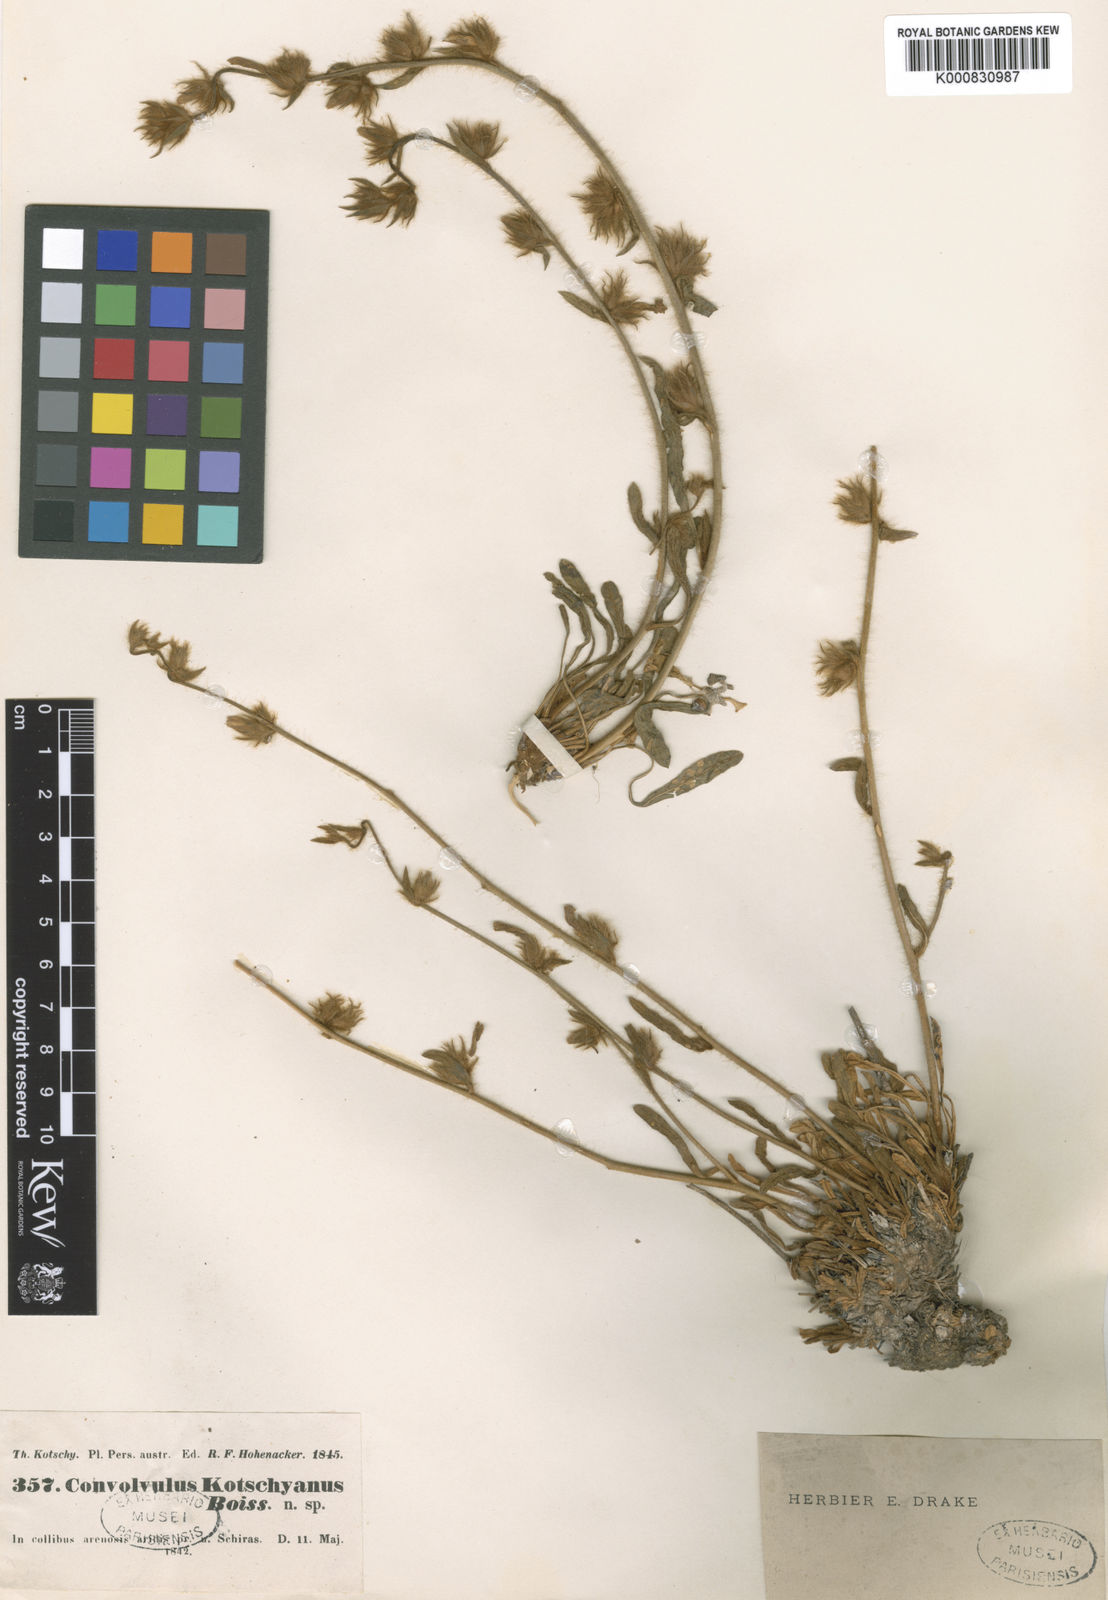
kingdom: Plantae
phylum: Tracheophyta
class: Magnoliopsida
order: Solanales
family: Convolvulaceae
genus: Convolvulus
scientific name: Convolvulus kotschyanus
